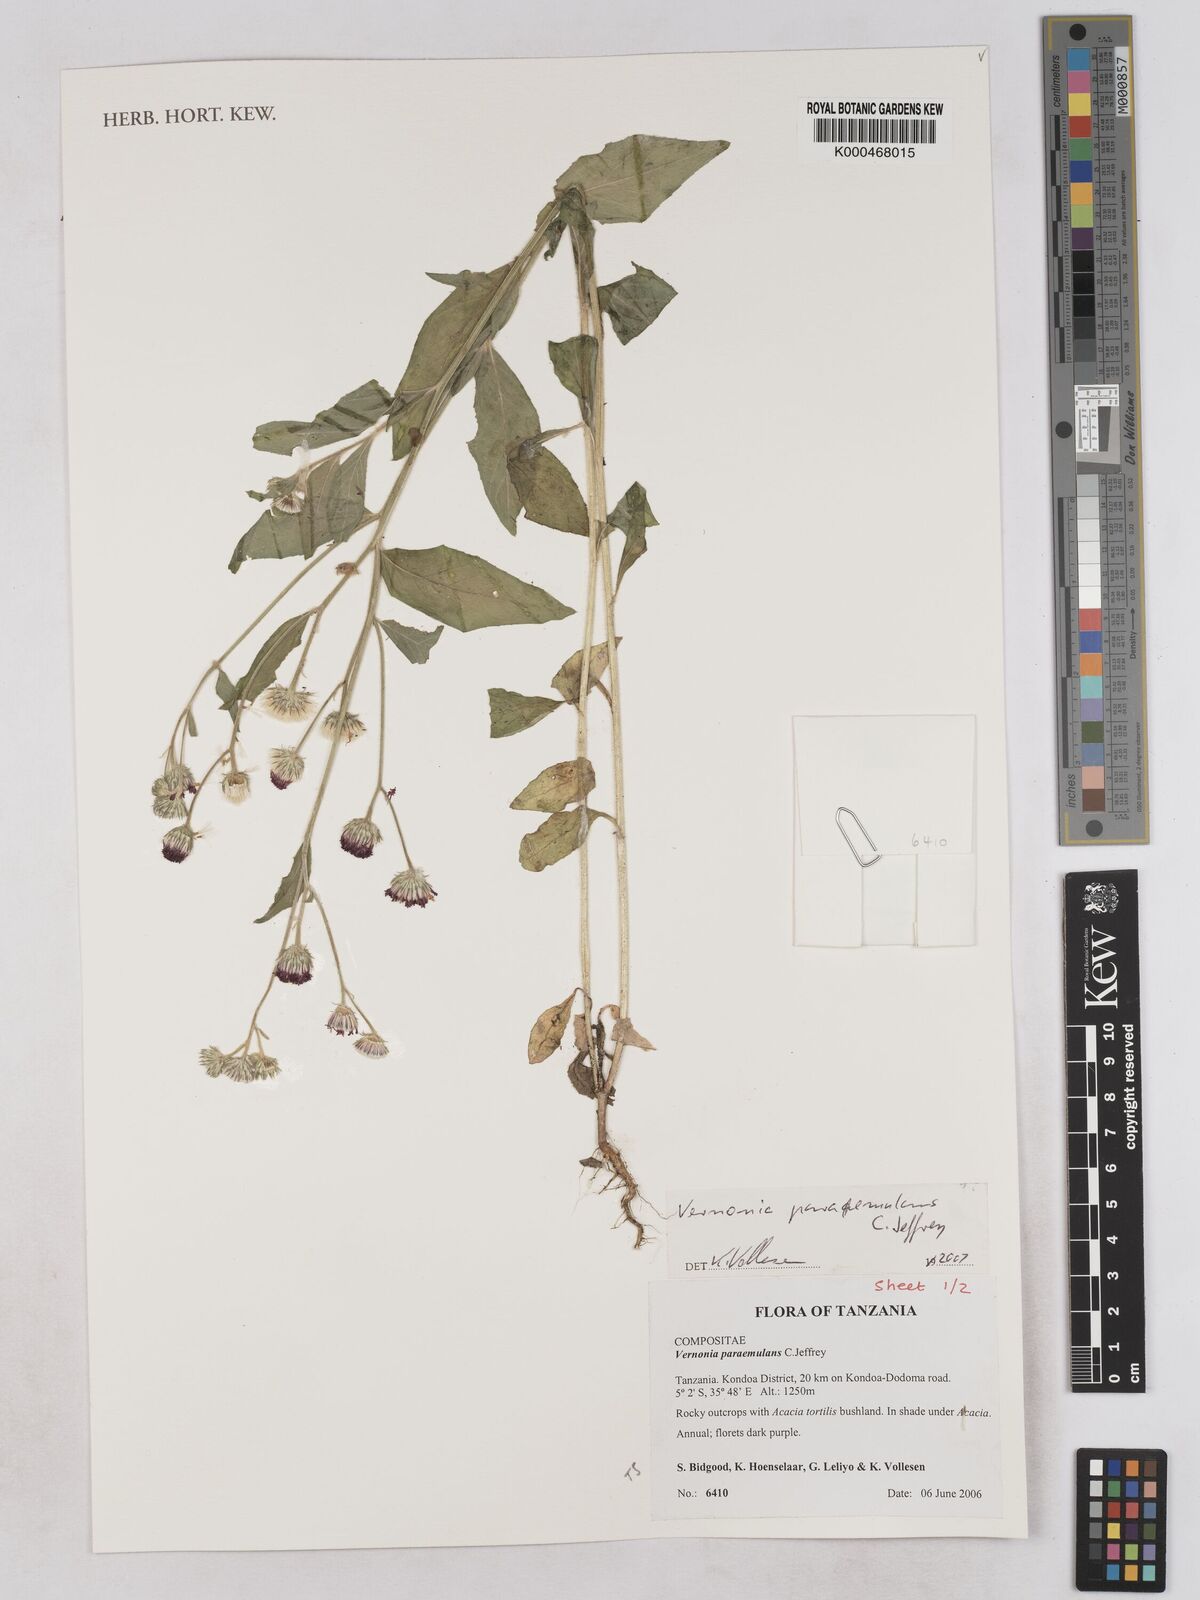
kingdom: Plantae
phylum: Tracheophyta
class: Magnoliopsida
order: Asterales
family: Asteraceae
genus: Vernoniastrum
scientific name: Vernoniastrum paraemulans
